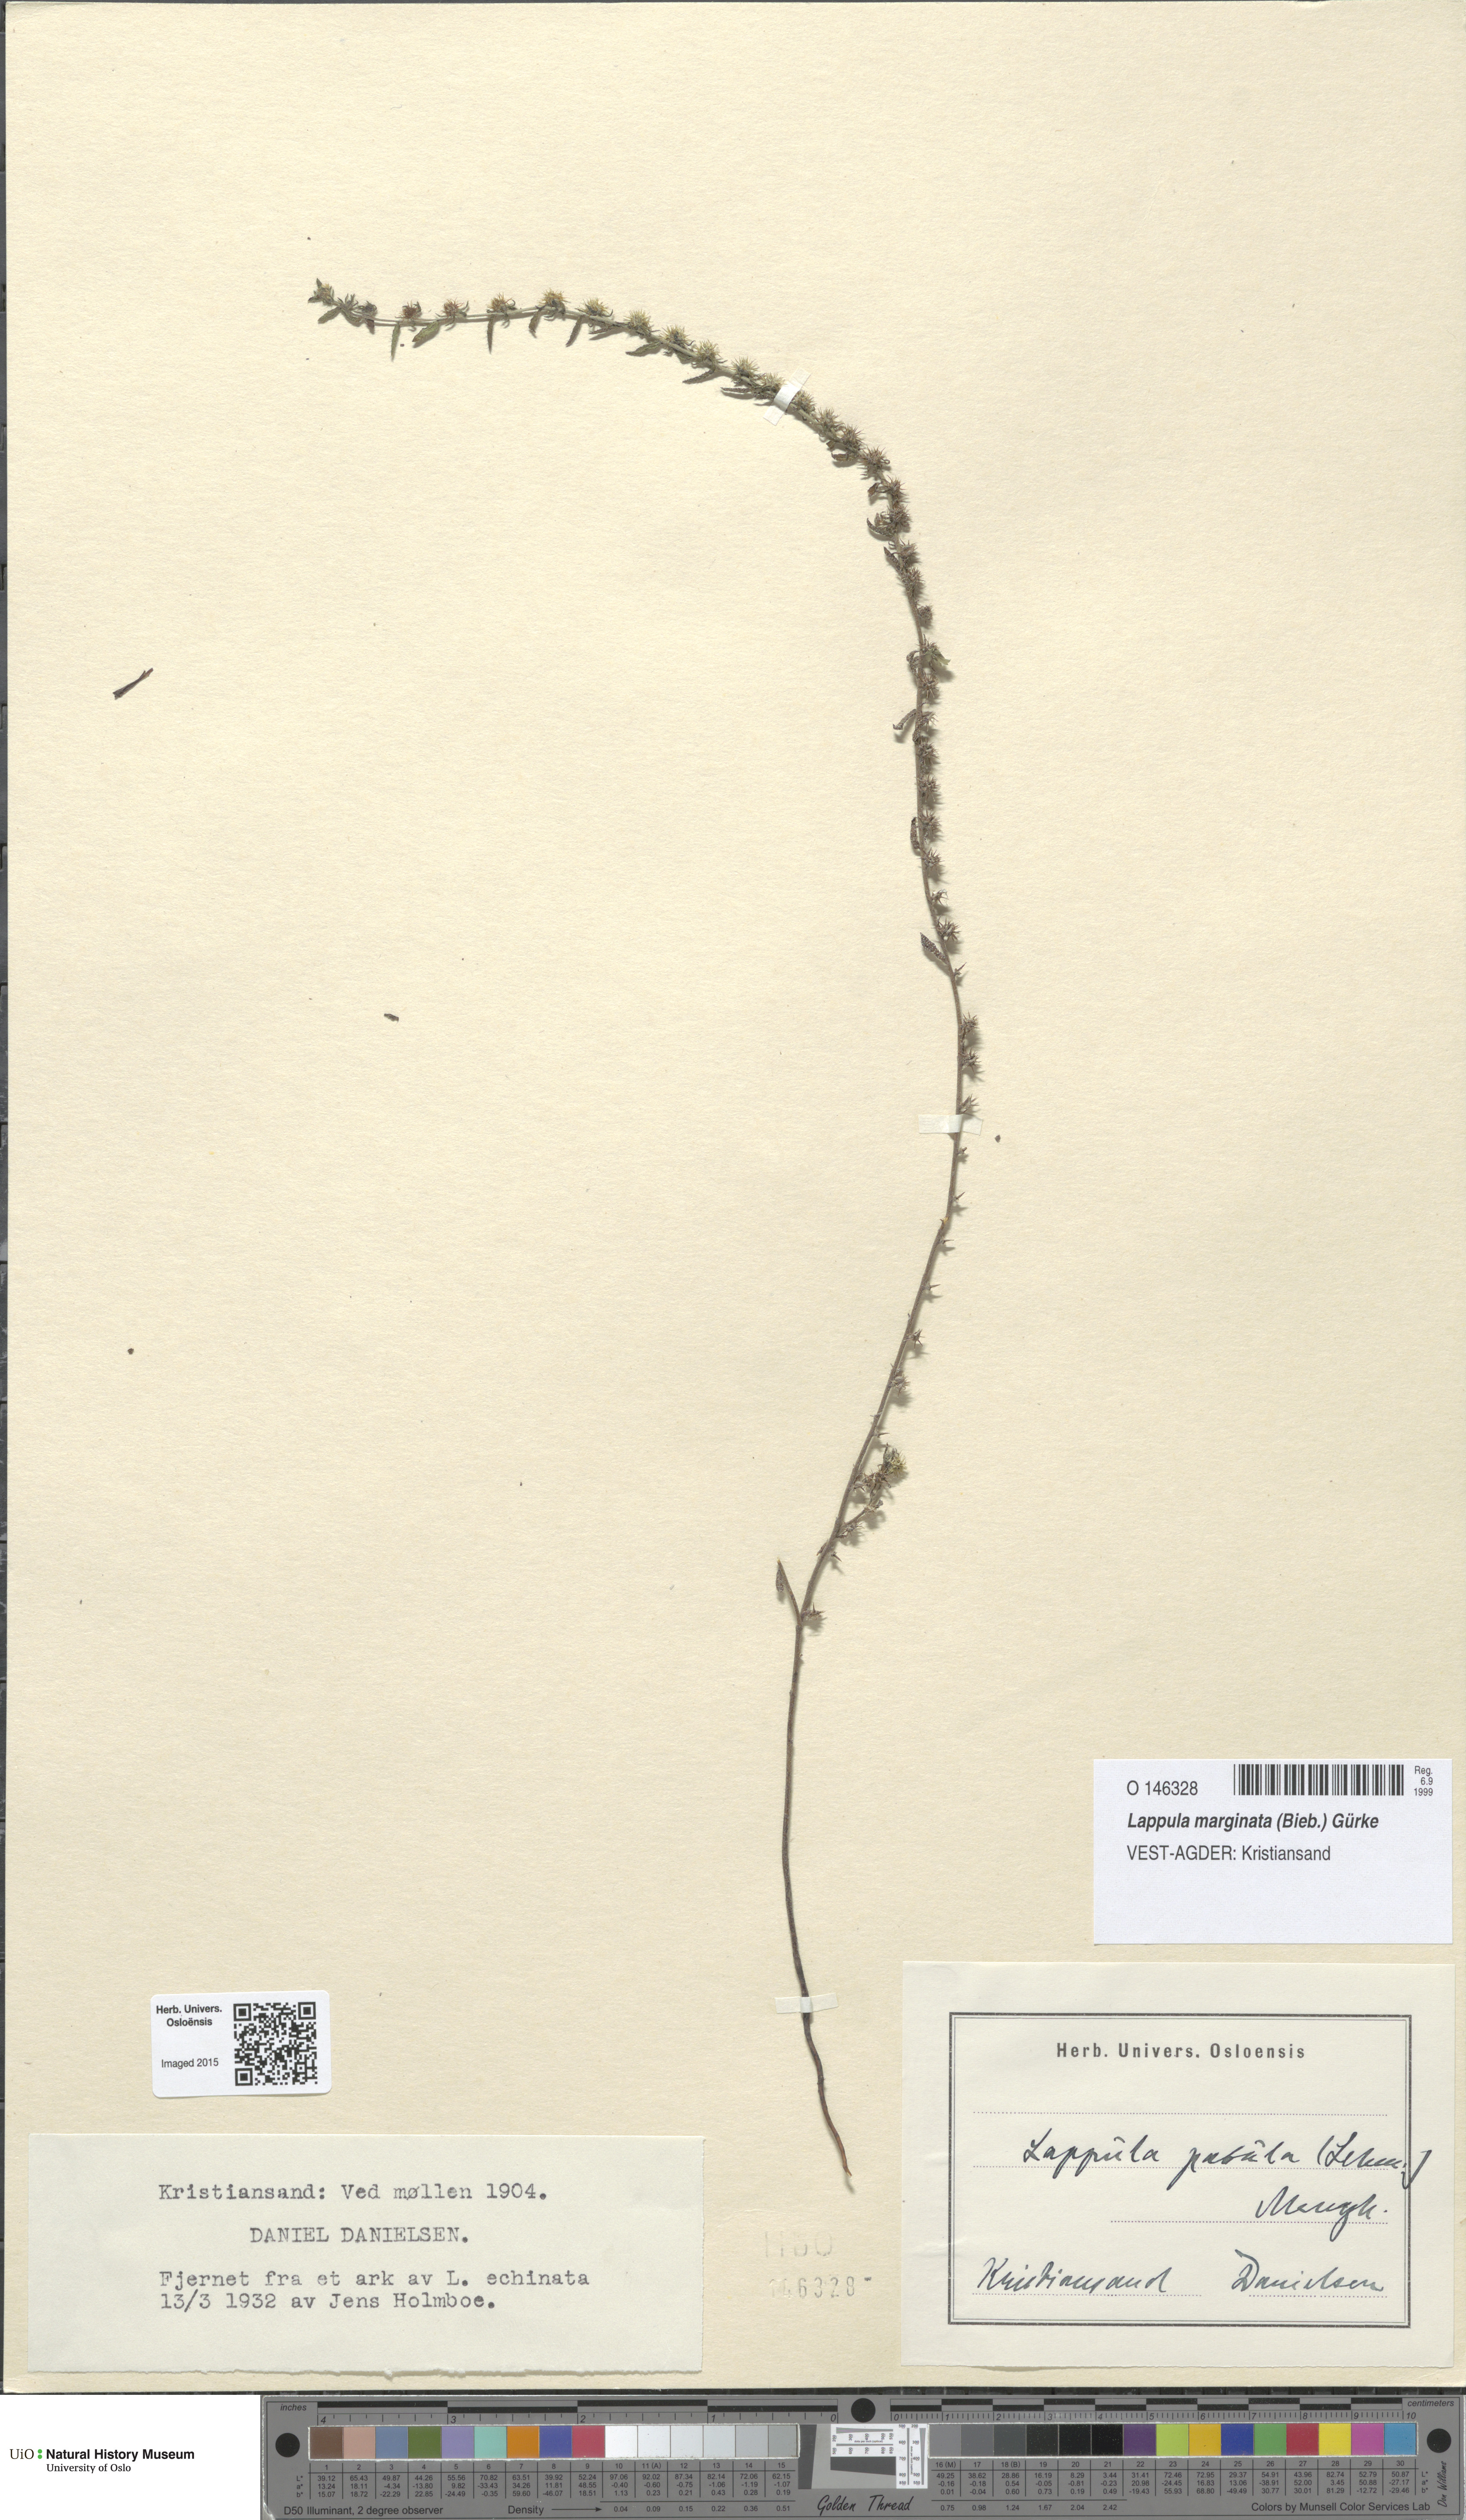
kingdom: Plantae
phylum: Tracheophyta
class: Magnoliopsida
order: Boraginales
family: Boraginaceae
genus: Lappula
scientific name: Lappula patula
